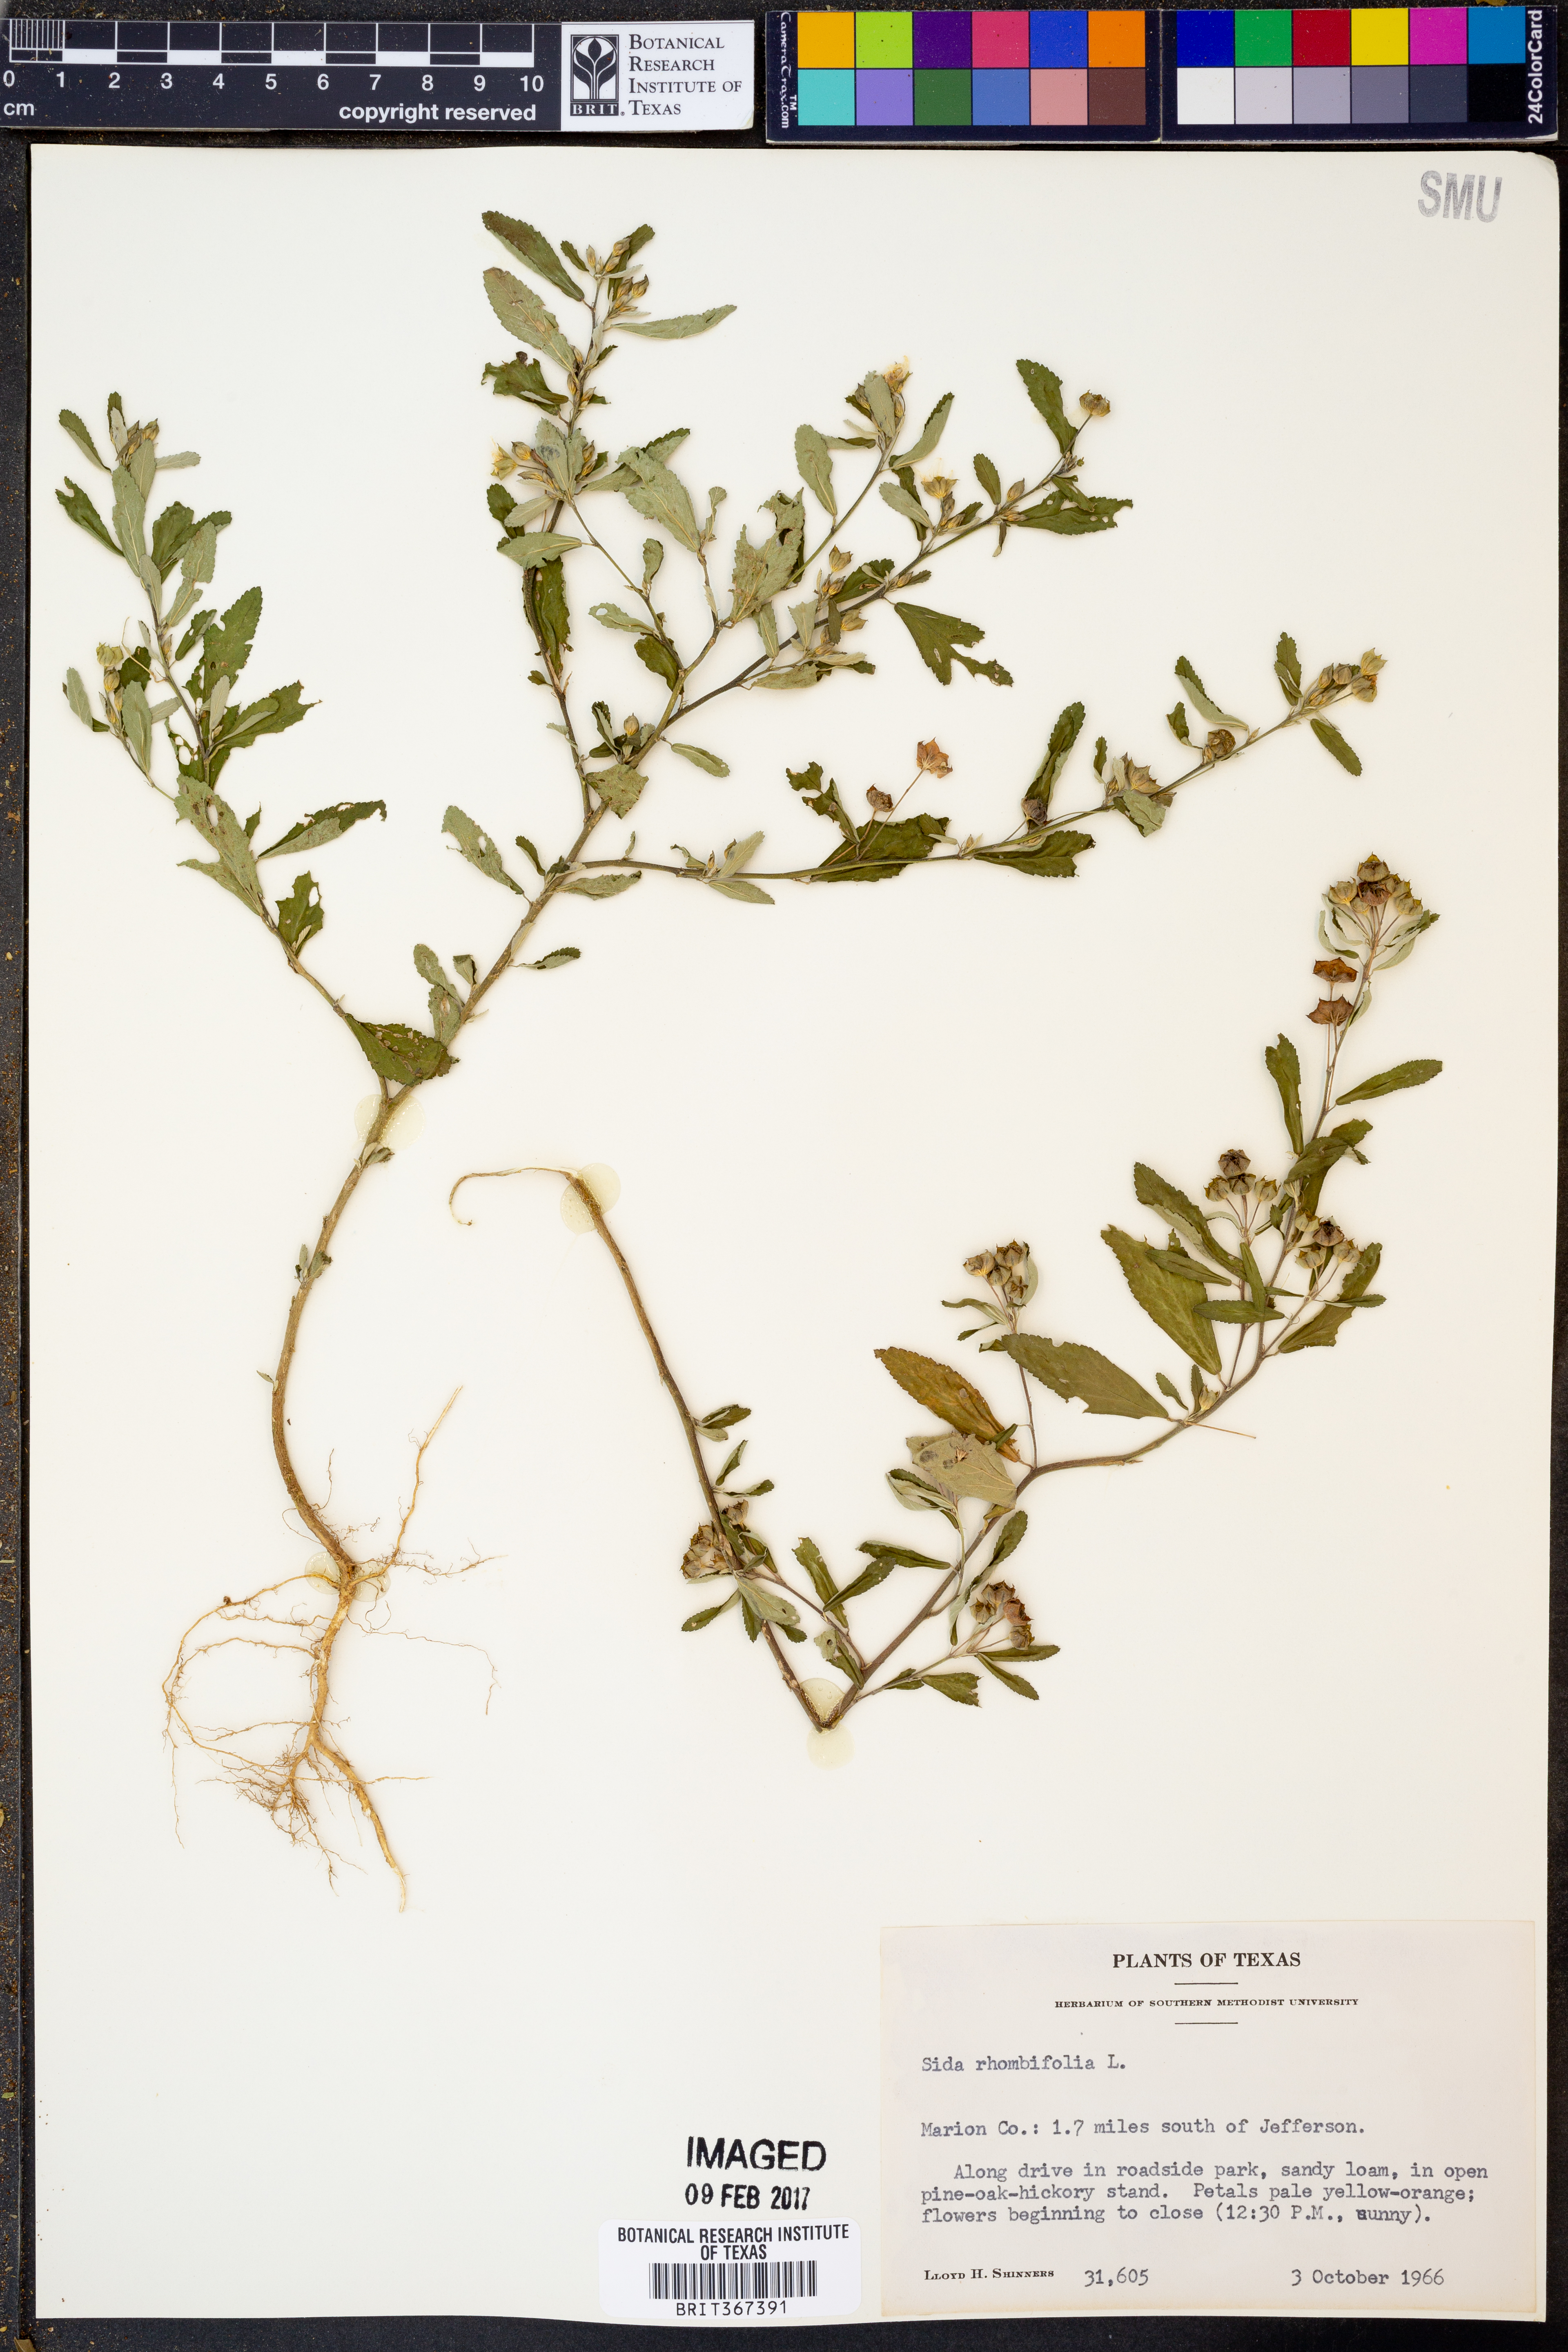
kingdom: Plantae
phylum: Tracheophyta
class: Magnoliopsida
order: Malvales
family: Malvaceae
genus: Sida
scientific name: Sida rhombifolia
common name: Queensland-hemp
